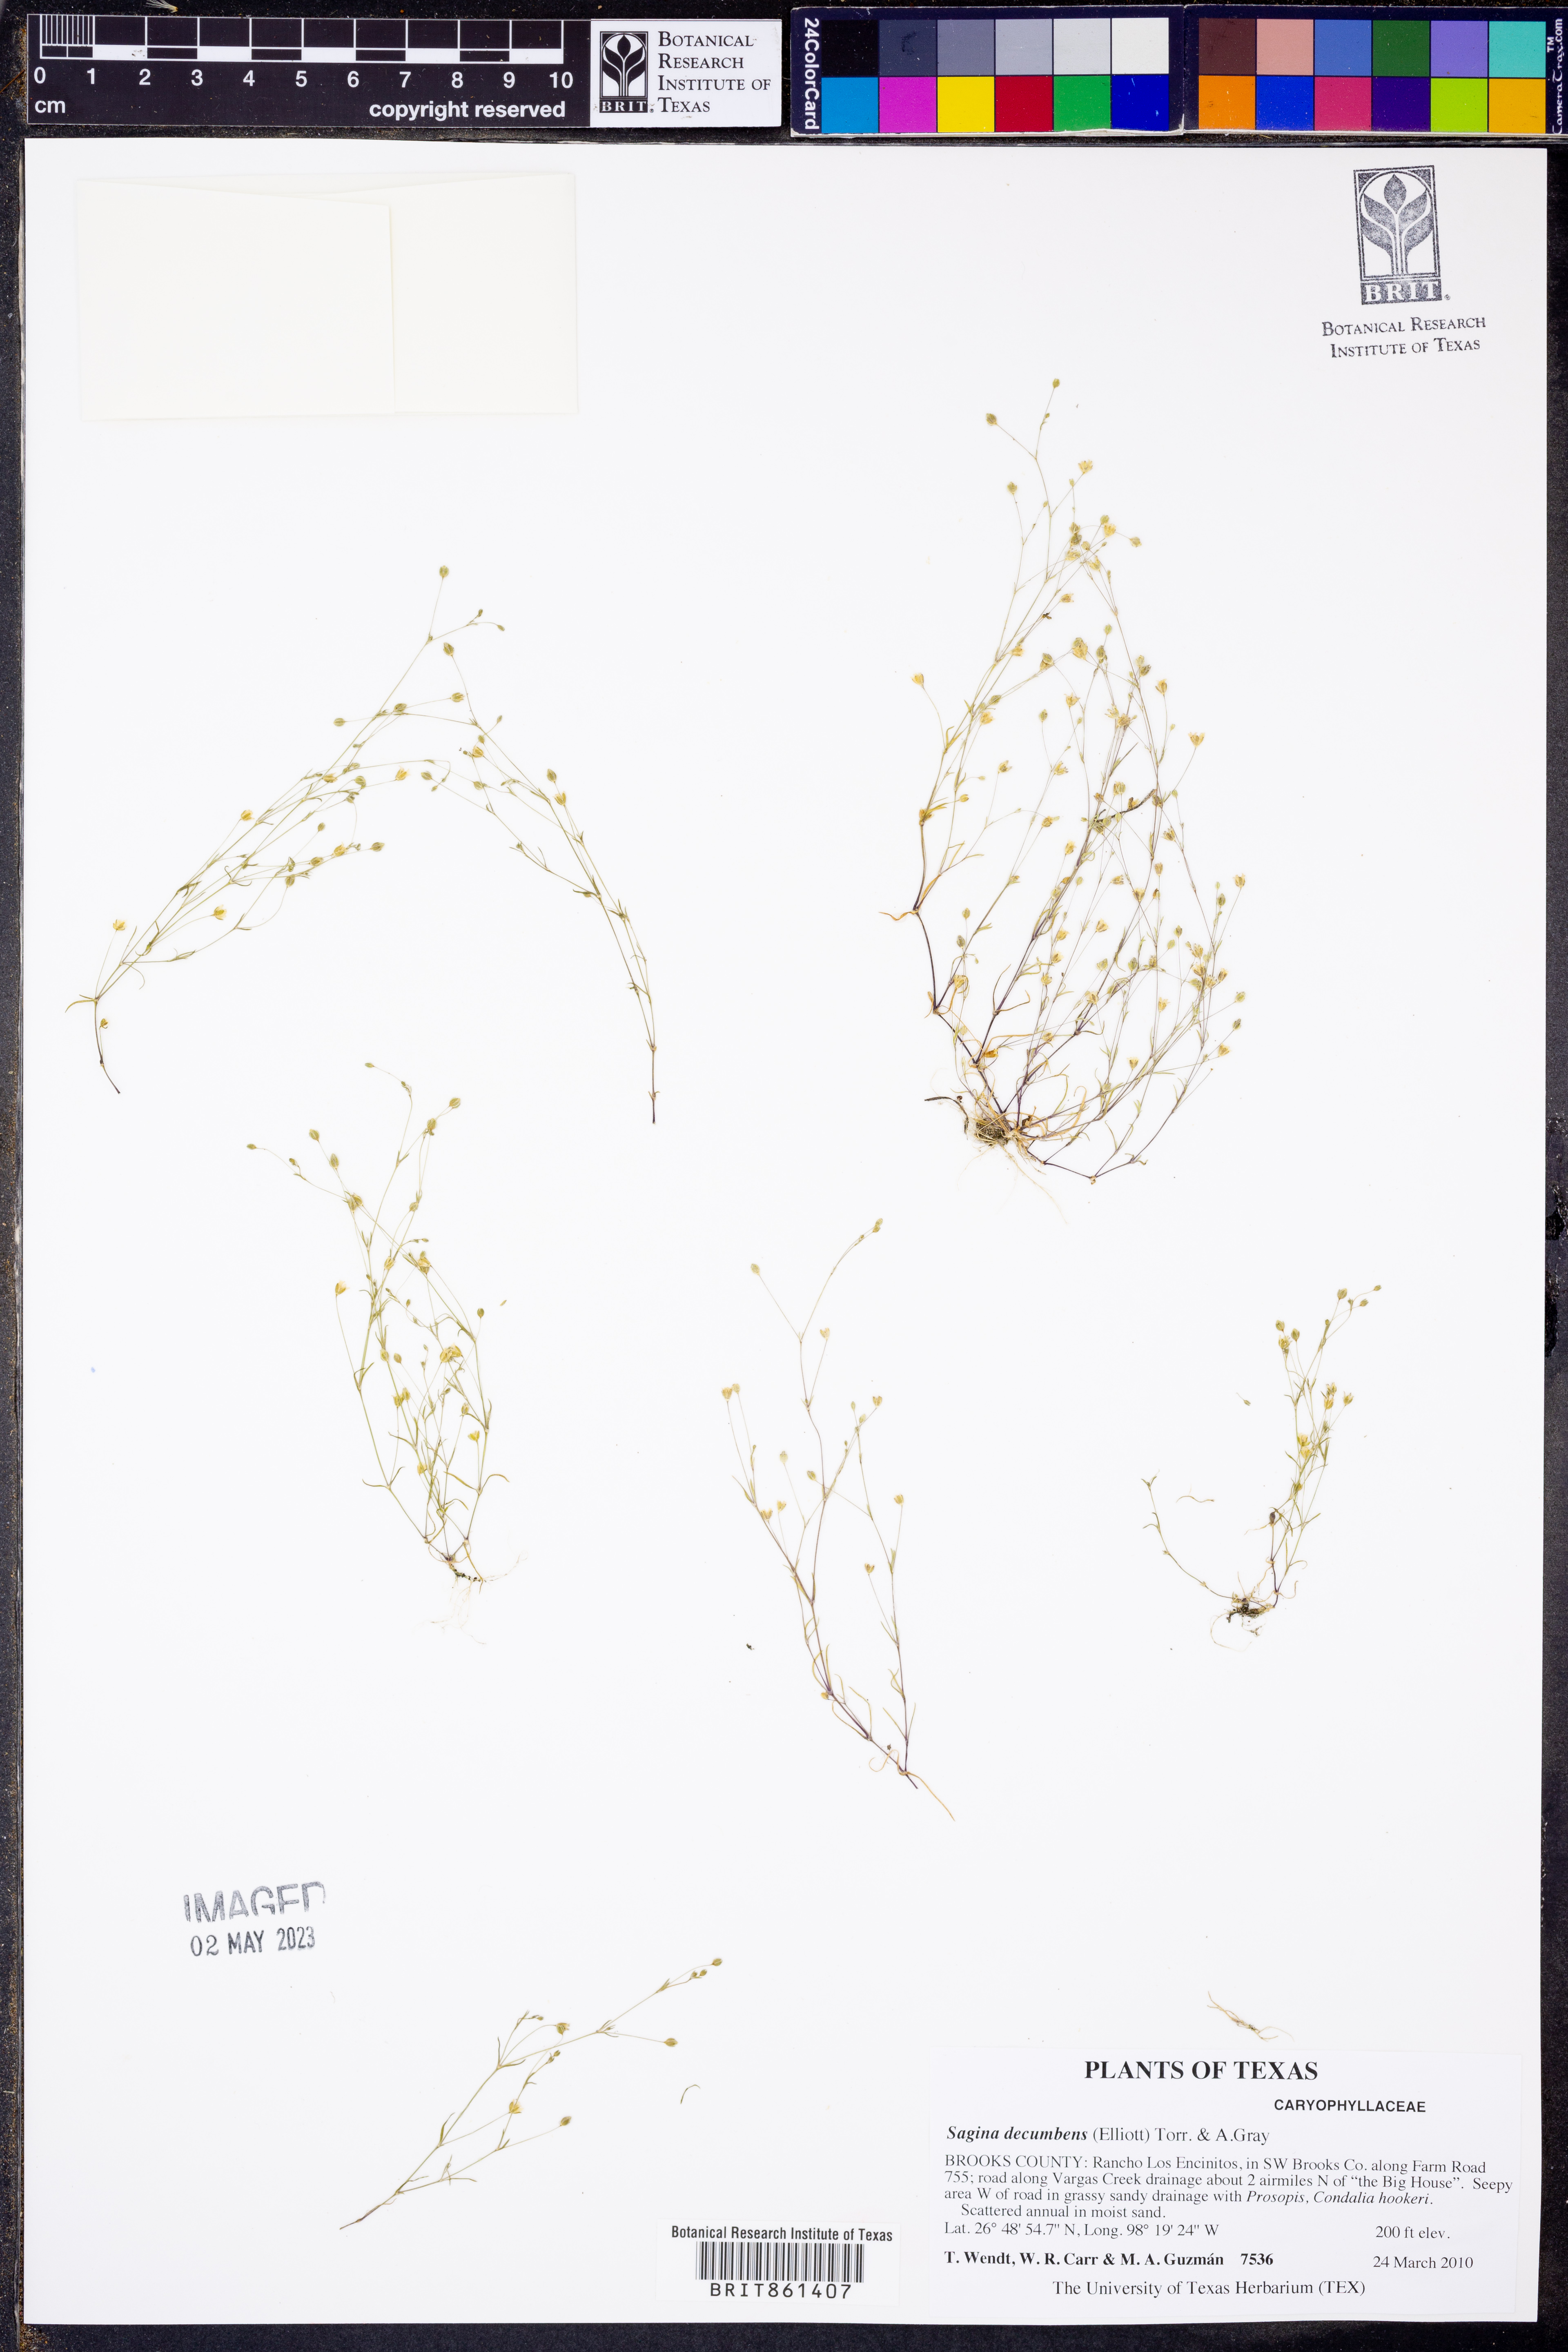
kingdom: Plantae
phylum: Tracheophyta
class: Magnoliopsida
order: Caryophyllales
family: Caryophyllaceae
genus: Sagina
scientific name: Sagina decumbens
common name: Decumbent pearlwort
